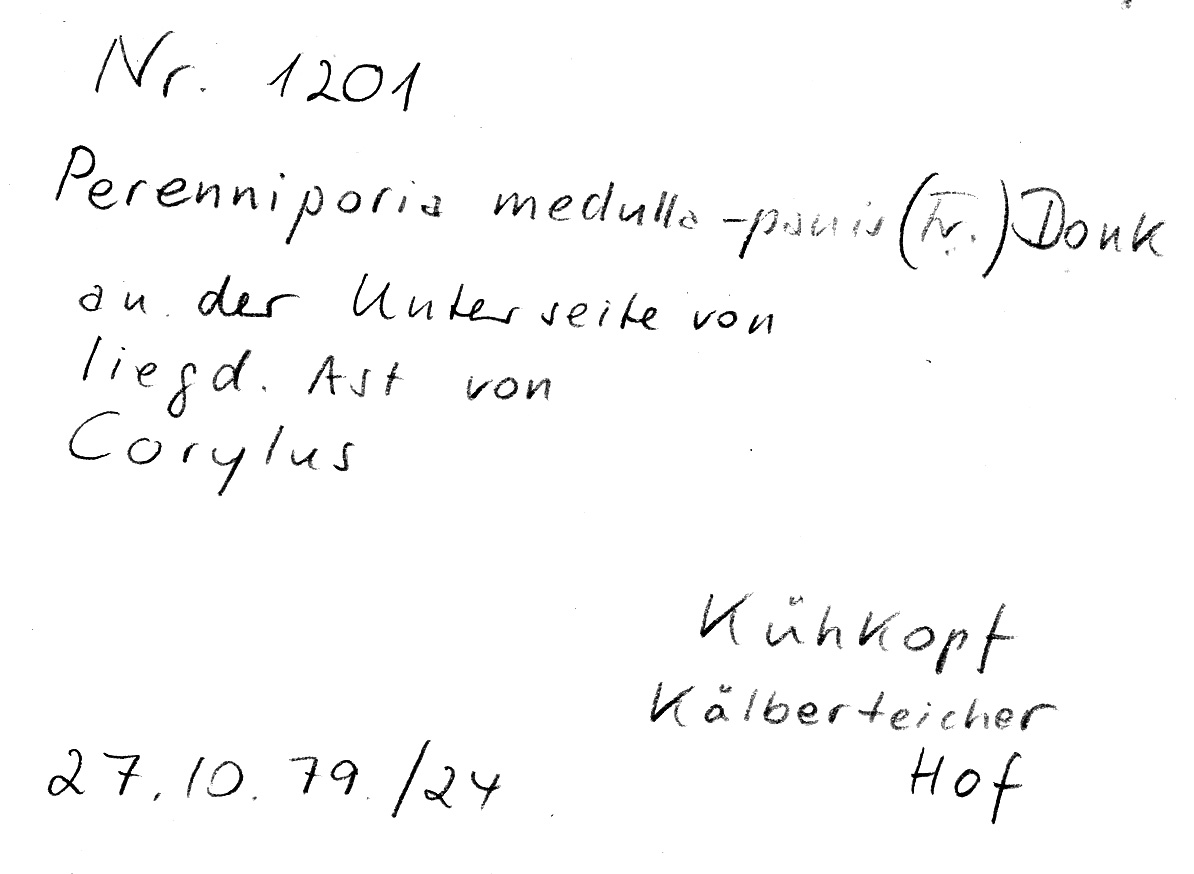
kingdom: Fungi
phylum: Basidiomycota
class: Agaricomycetes
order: Polyporales
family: Polyporaceae
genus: Perenniporia
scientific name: Perenniporia medulla-panis
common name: Pancake crust
